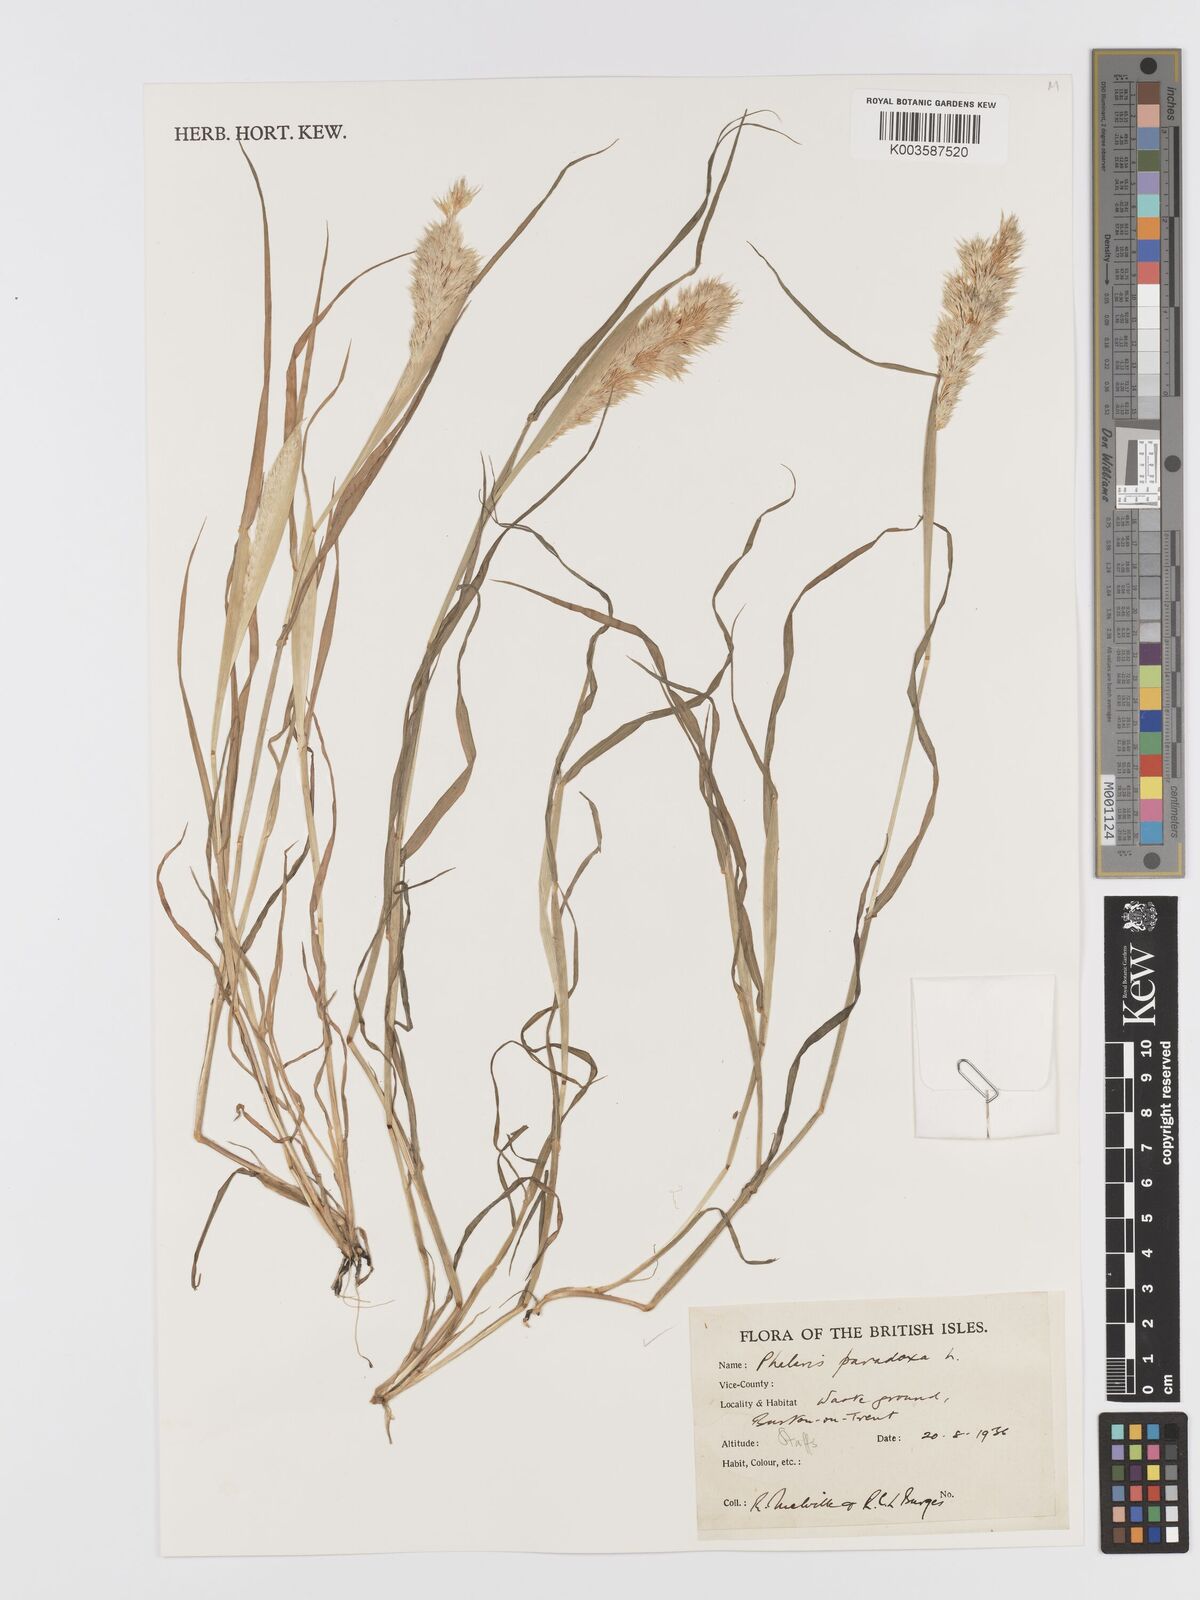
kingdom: Plantae
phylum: Tracheophyta
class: Liliopsida
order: Poales
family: Poaceae
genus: Phalaris
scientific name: Phalaris paradoxa
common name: Awned canary-grass
